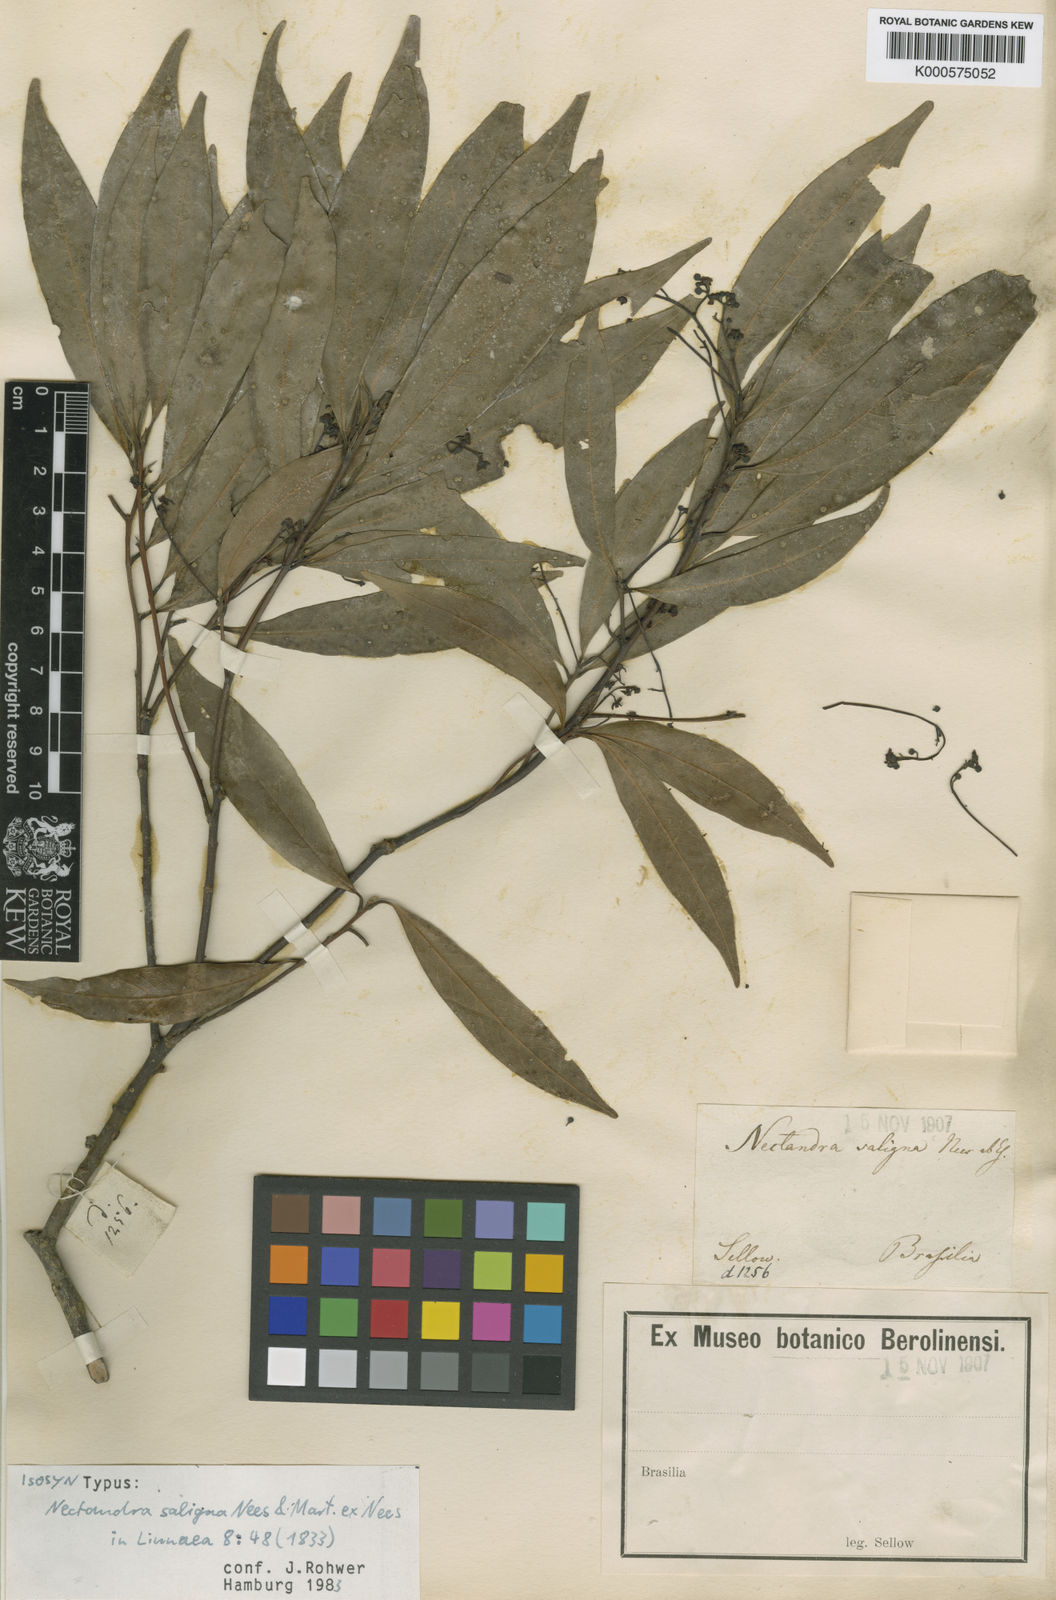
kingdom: Plantae
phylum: Tracheophyta
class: Magnoliopsida
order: Laurales
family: Lauraceae
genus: Nectandra
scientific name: Nectandra megapotamica
